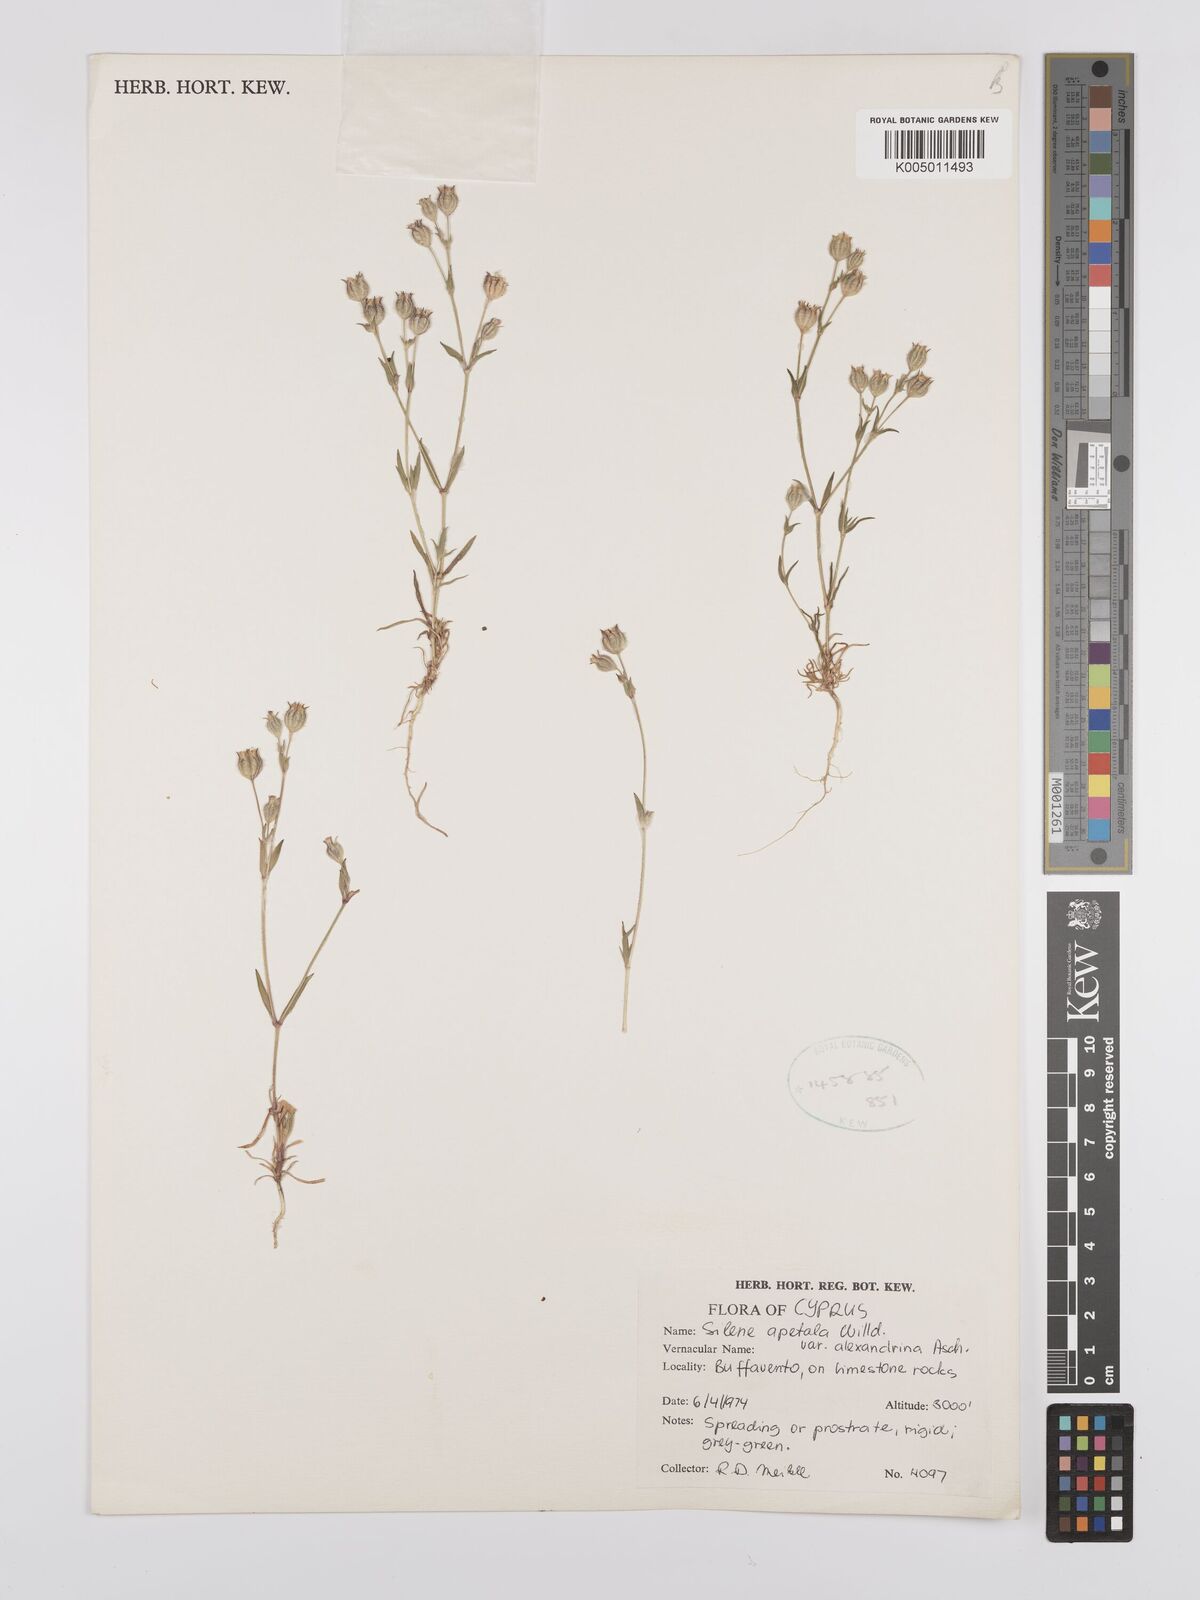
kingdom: Plantae
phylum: Tracheophyta
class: Magnoliopsida
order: Caryophyllales
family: Caryophyllaceae
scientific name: Caryophyllaceae
